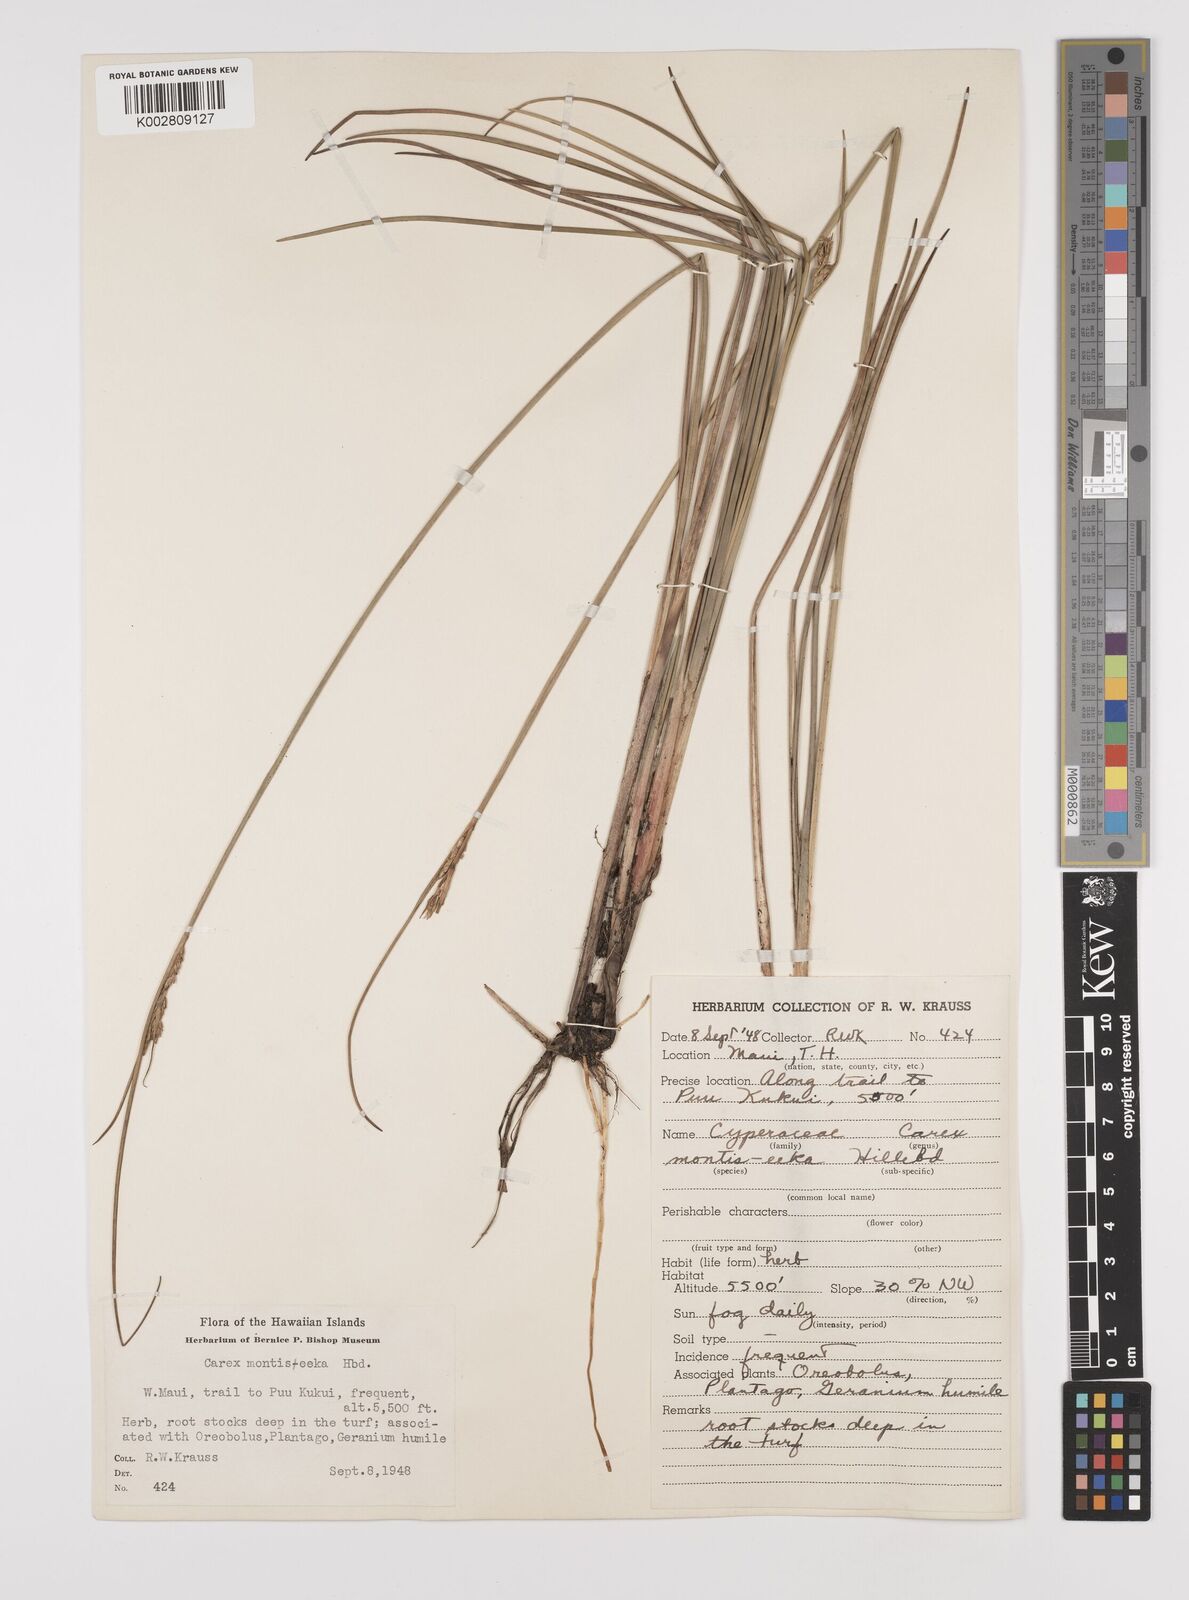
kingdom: Plantae
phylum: Tracheophyta
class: Liliopsida
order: Poales
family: Cyperaceae
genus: Carex
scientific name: Carex montis-eeka
